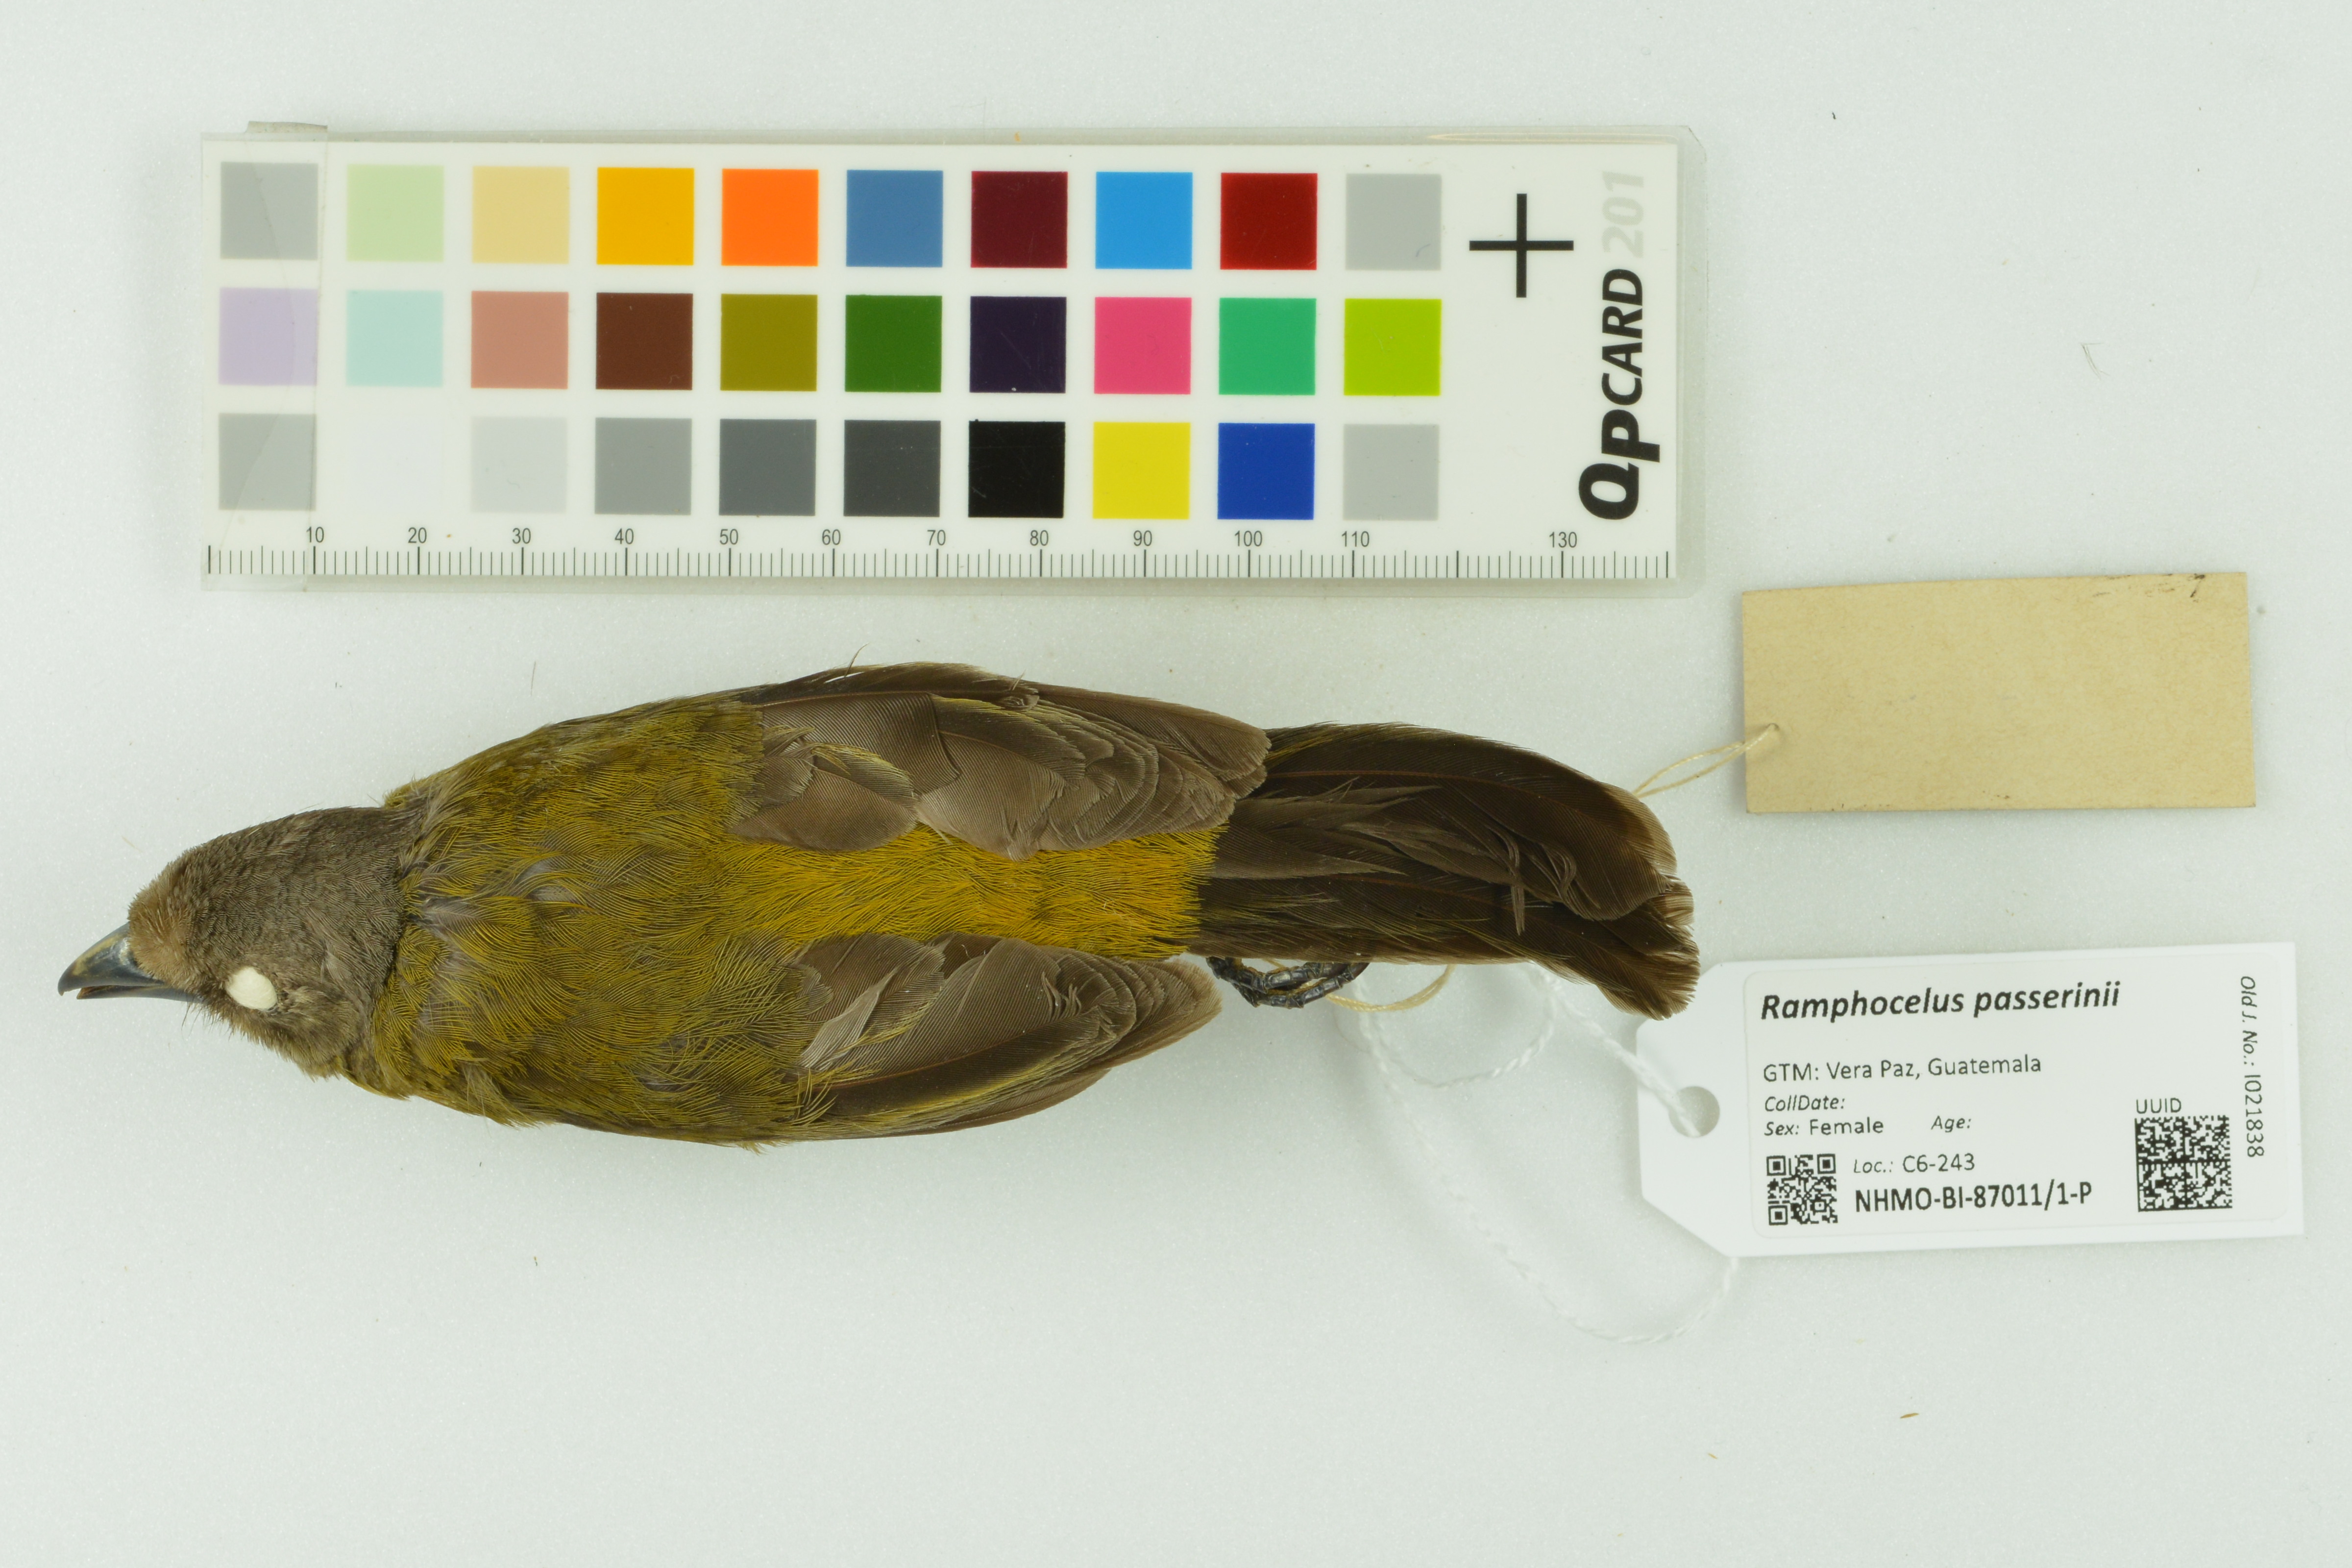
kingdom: Animalia
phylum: Chordata
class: Aves
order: Passeriformes
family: Thraupidae
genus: Ramphocelus
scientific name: Ramphocelus passerinii
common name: Passerini's tanager
